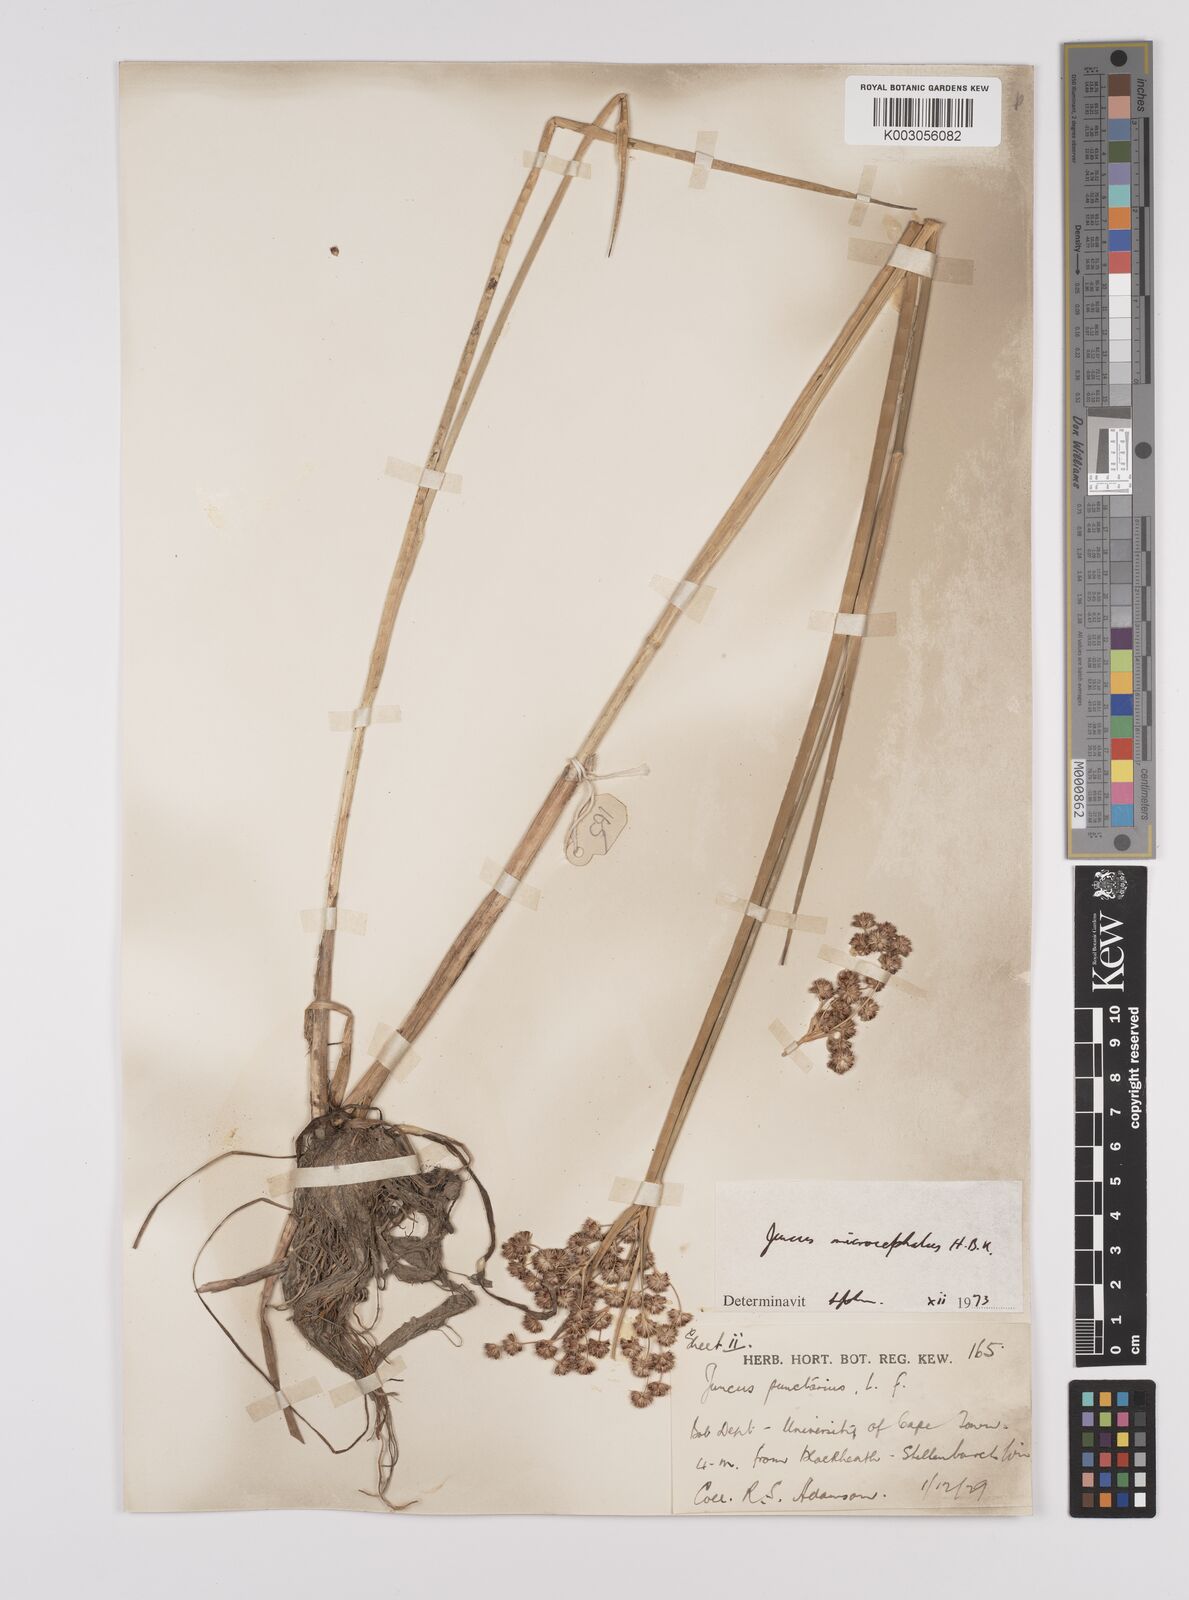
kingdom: Plantae
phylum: Tracheophyta
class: Liliopsida
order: Poales
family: Juncaceae
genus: Juncus
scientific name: Juncus microcephalus
